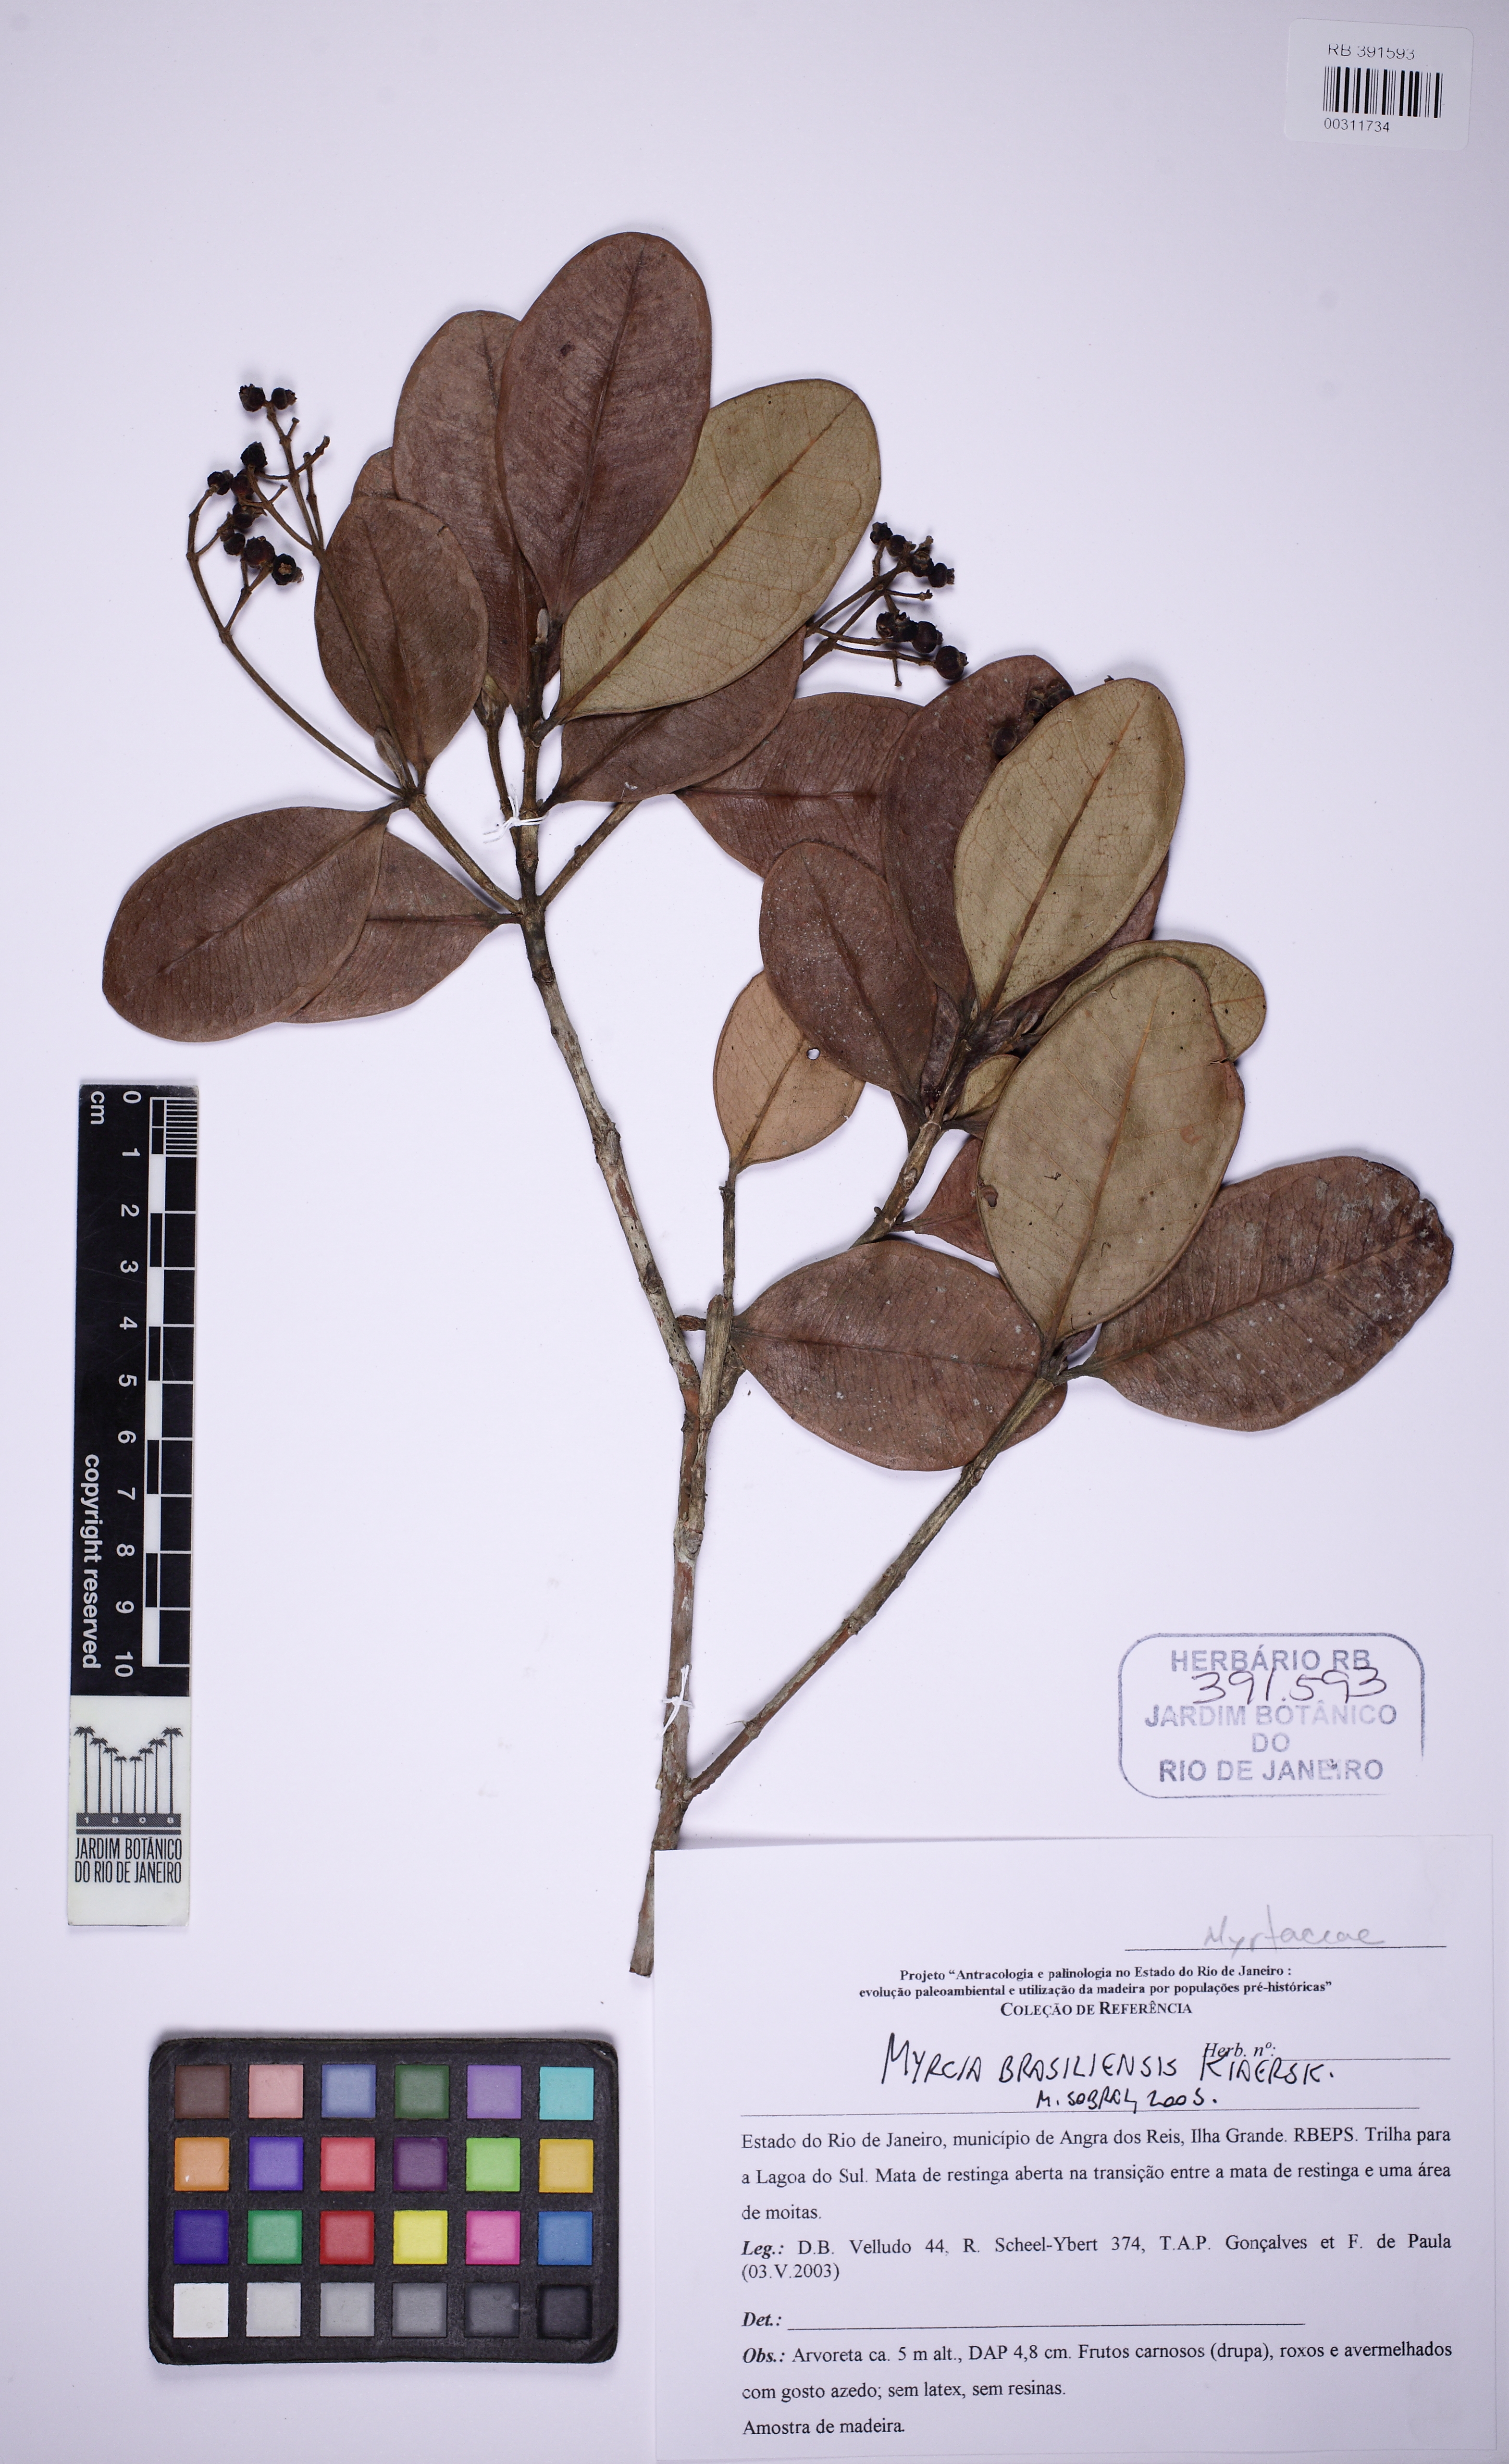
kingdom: Plantae
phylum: Tracheophyta
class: Magnoliopsida
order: Myrtales
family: Myrtaceae
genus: Myrcia
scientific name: Myrcia ilheosensis
